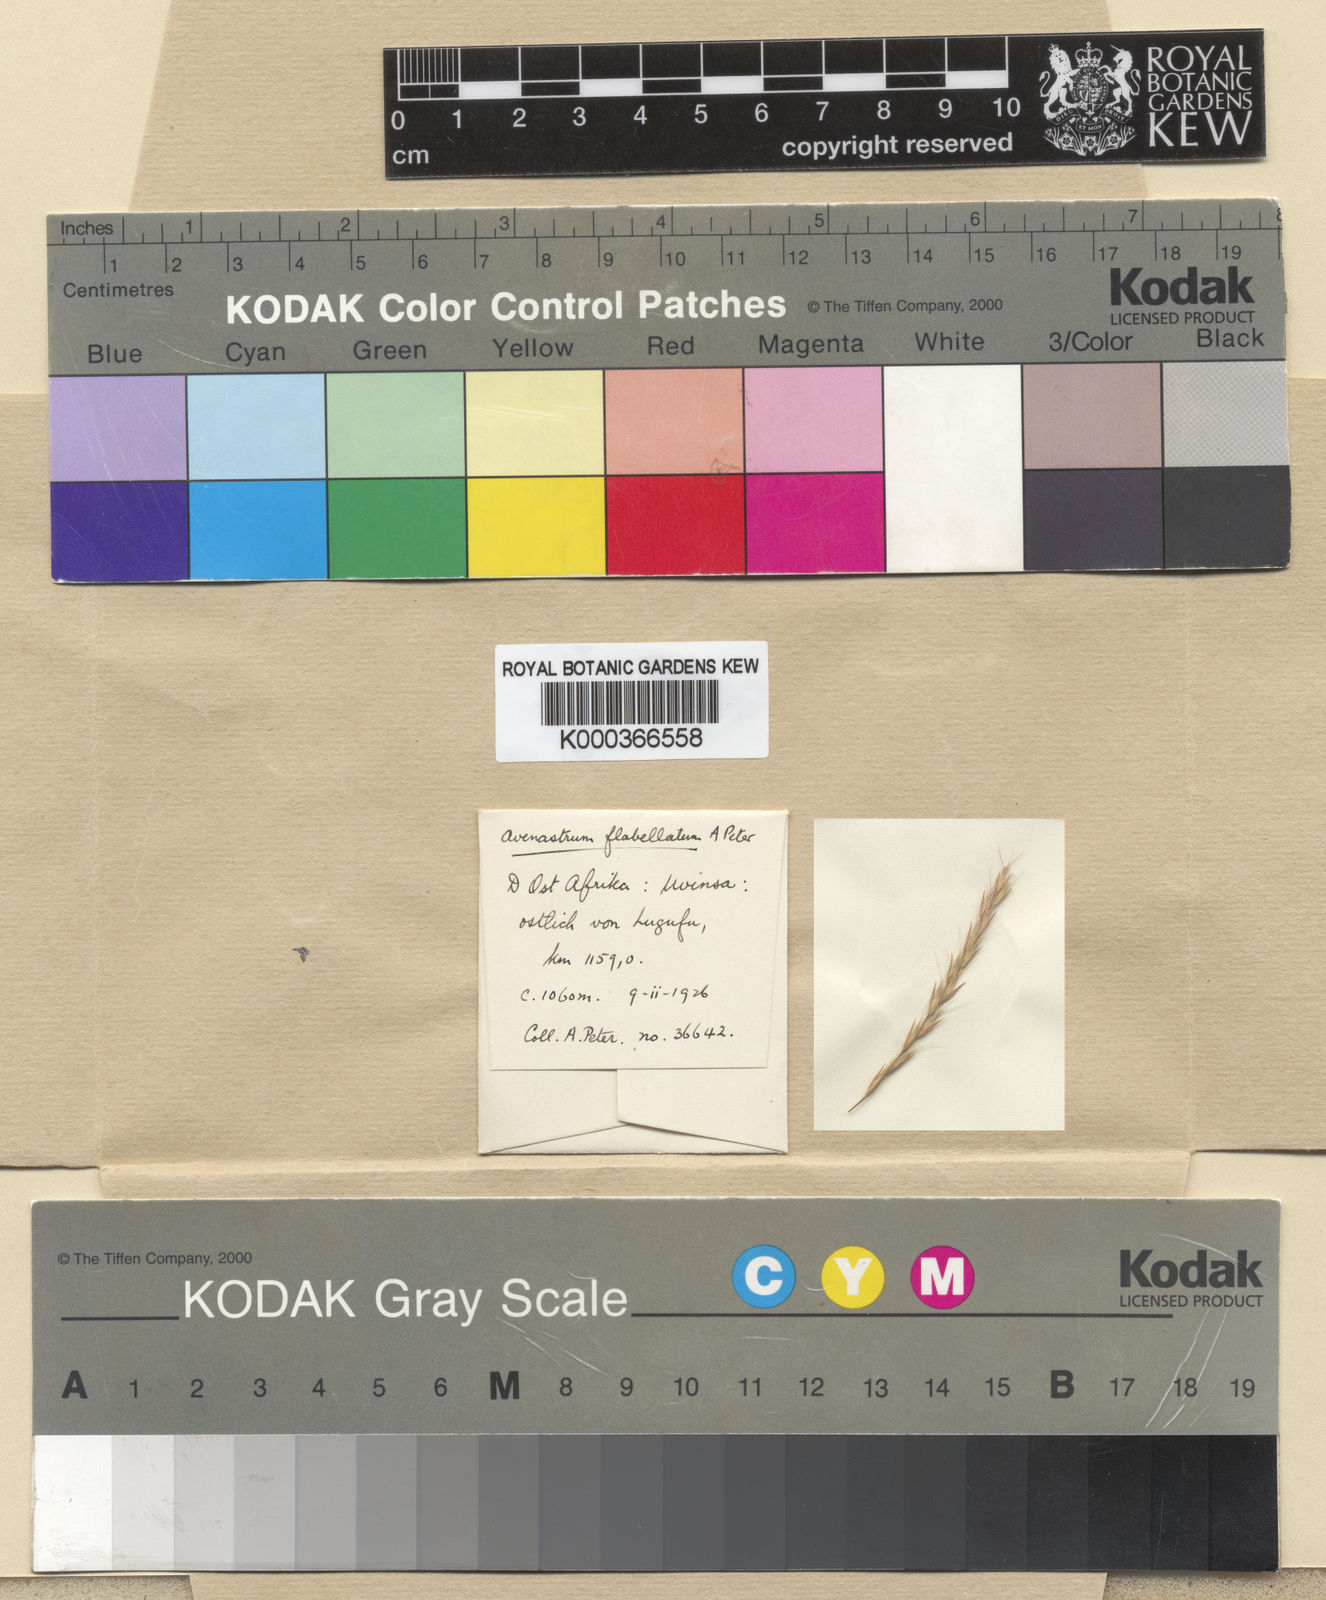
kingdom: Plantae
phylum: Tracheophyta
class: Liliopsida
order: Poales
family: Poaceae
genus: Bewsia
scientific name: Bewsia biflora
